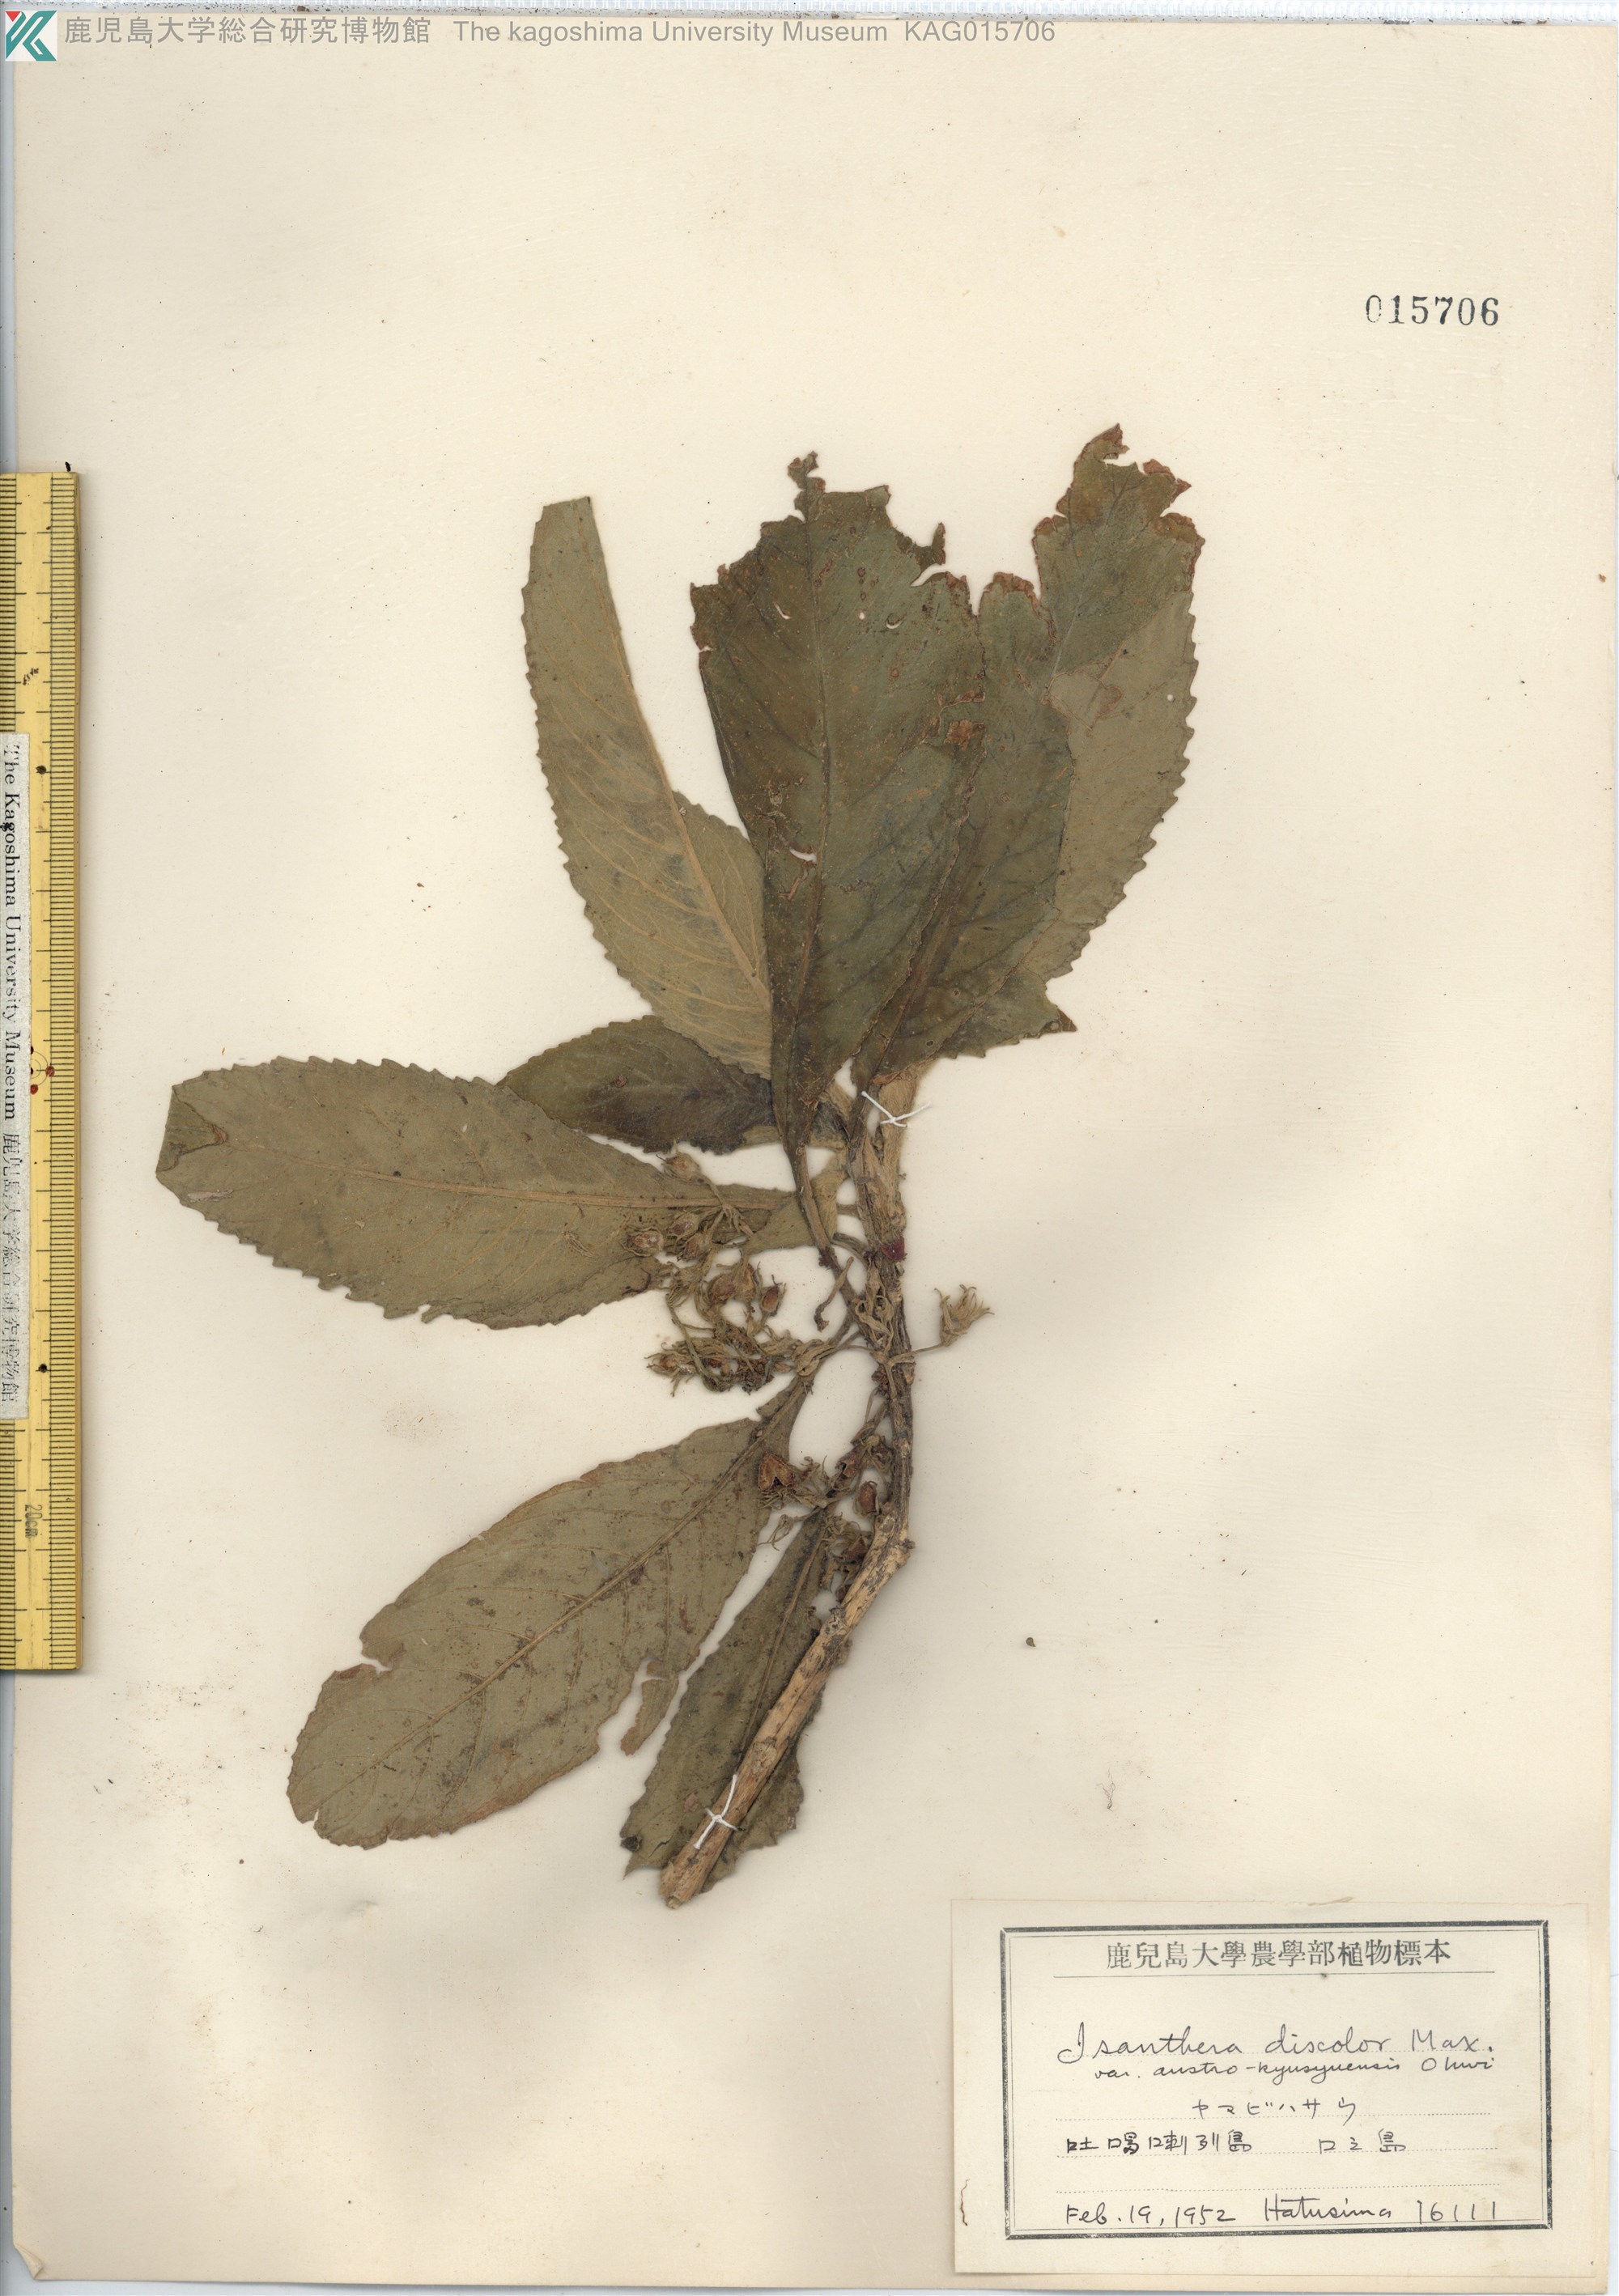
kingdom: Plantae
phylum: Tracheophyta
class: Magnoliopsida
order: Lamiales
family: Gesneriaceae
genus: Rhynchotechum
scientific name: Rhynchotechum discolor
